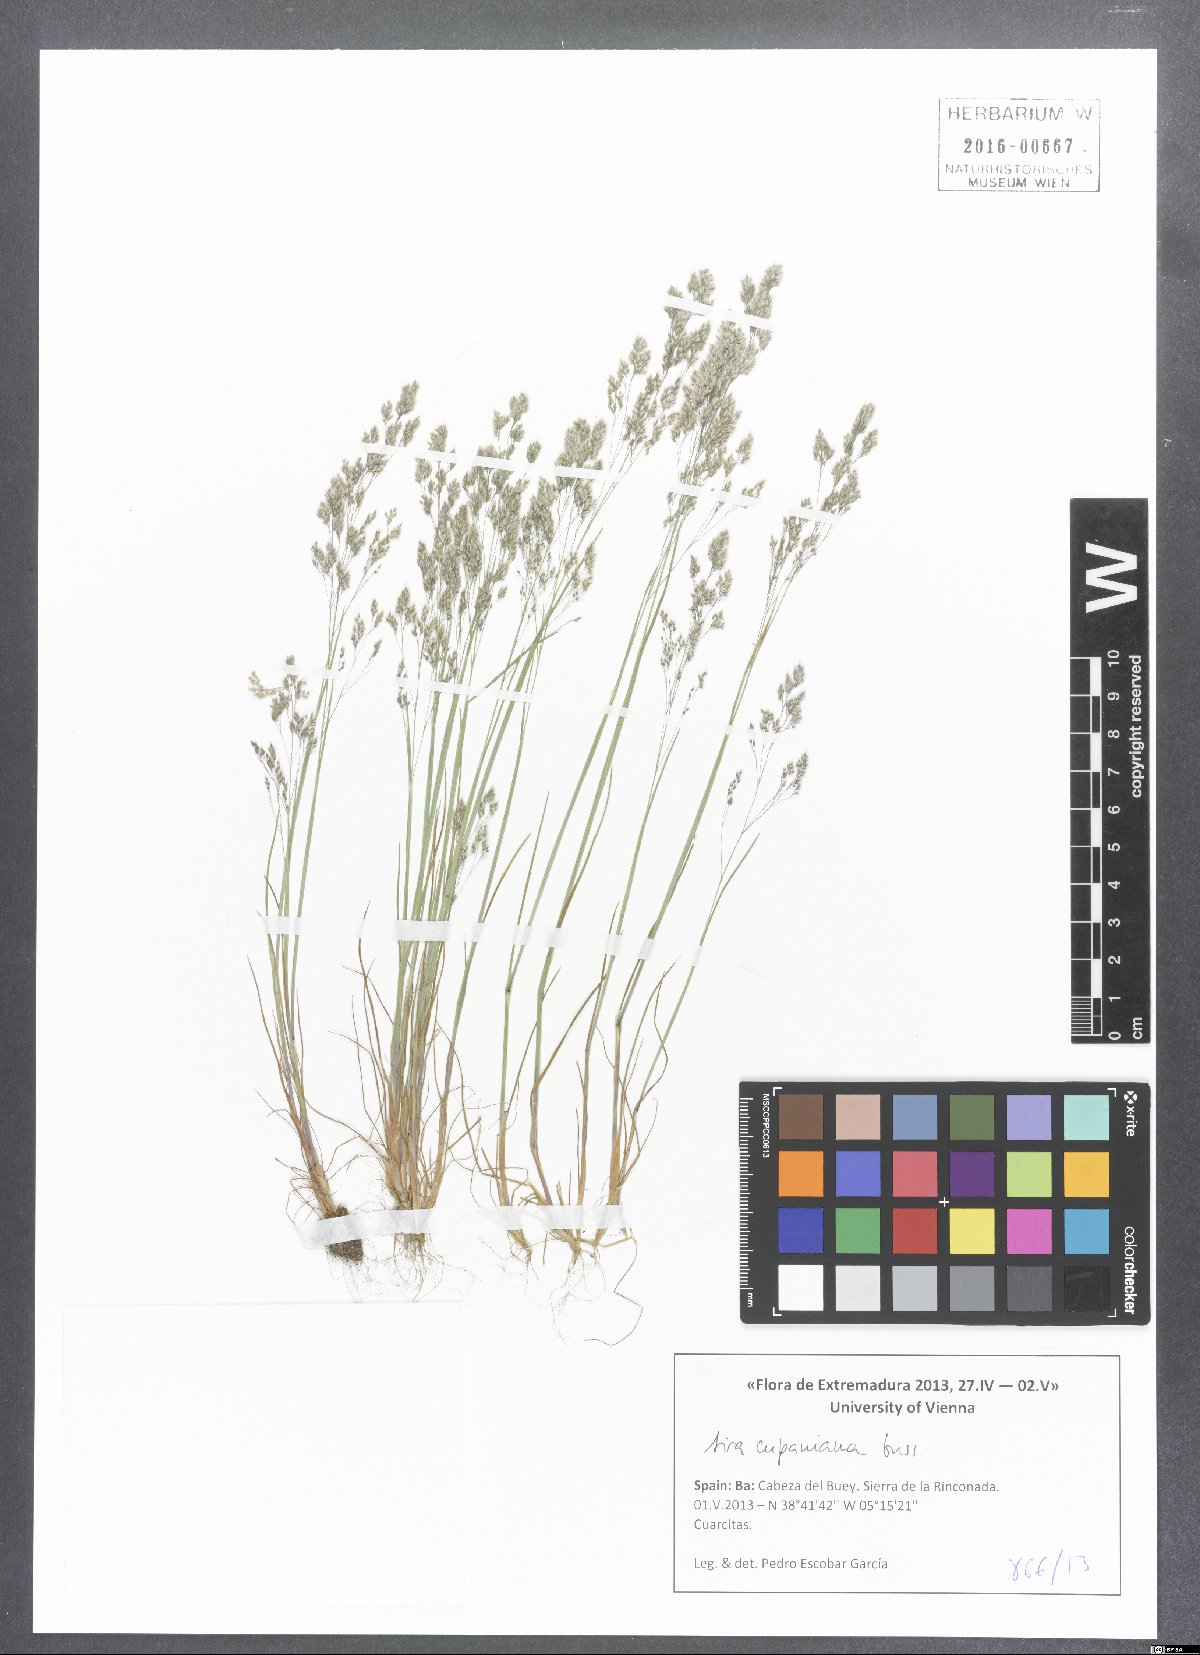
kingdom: Plantae
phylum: Tracheophyta
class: Liliopsida
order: Poales
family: Poaceae
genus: Aira
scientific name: Aira cupaniana
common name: Silver hairgrass
